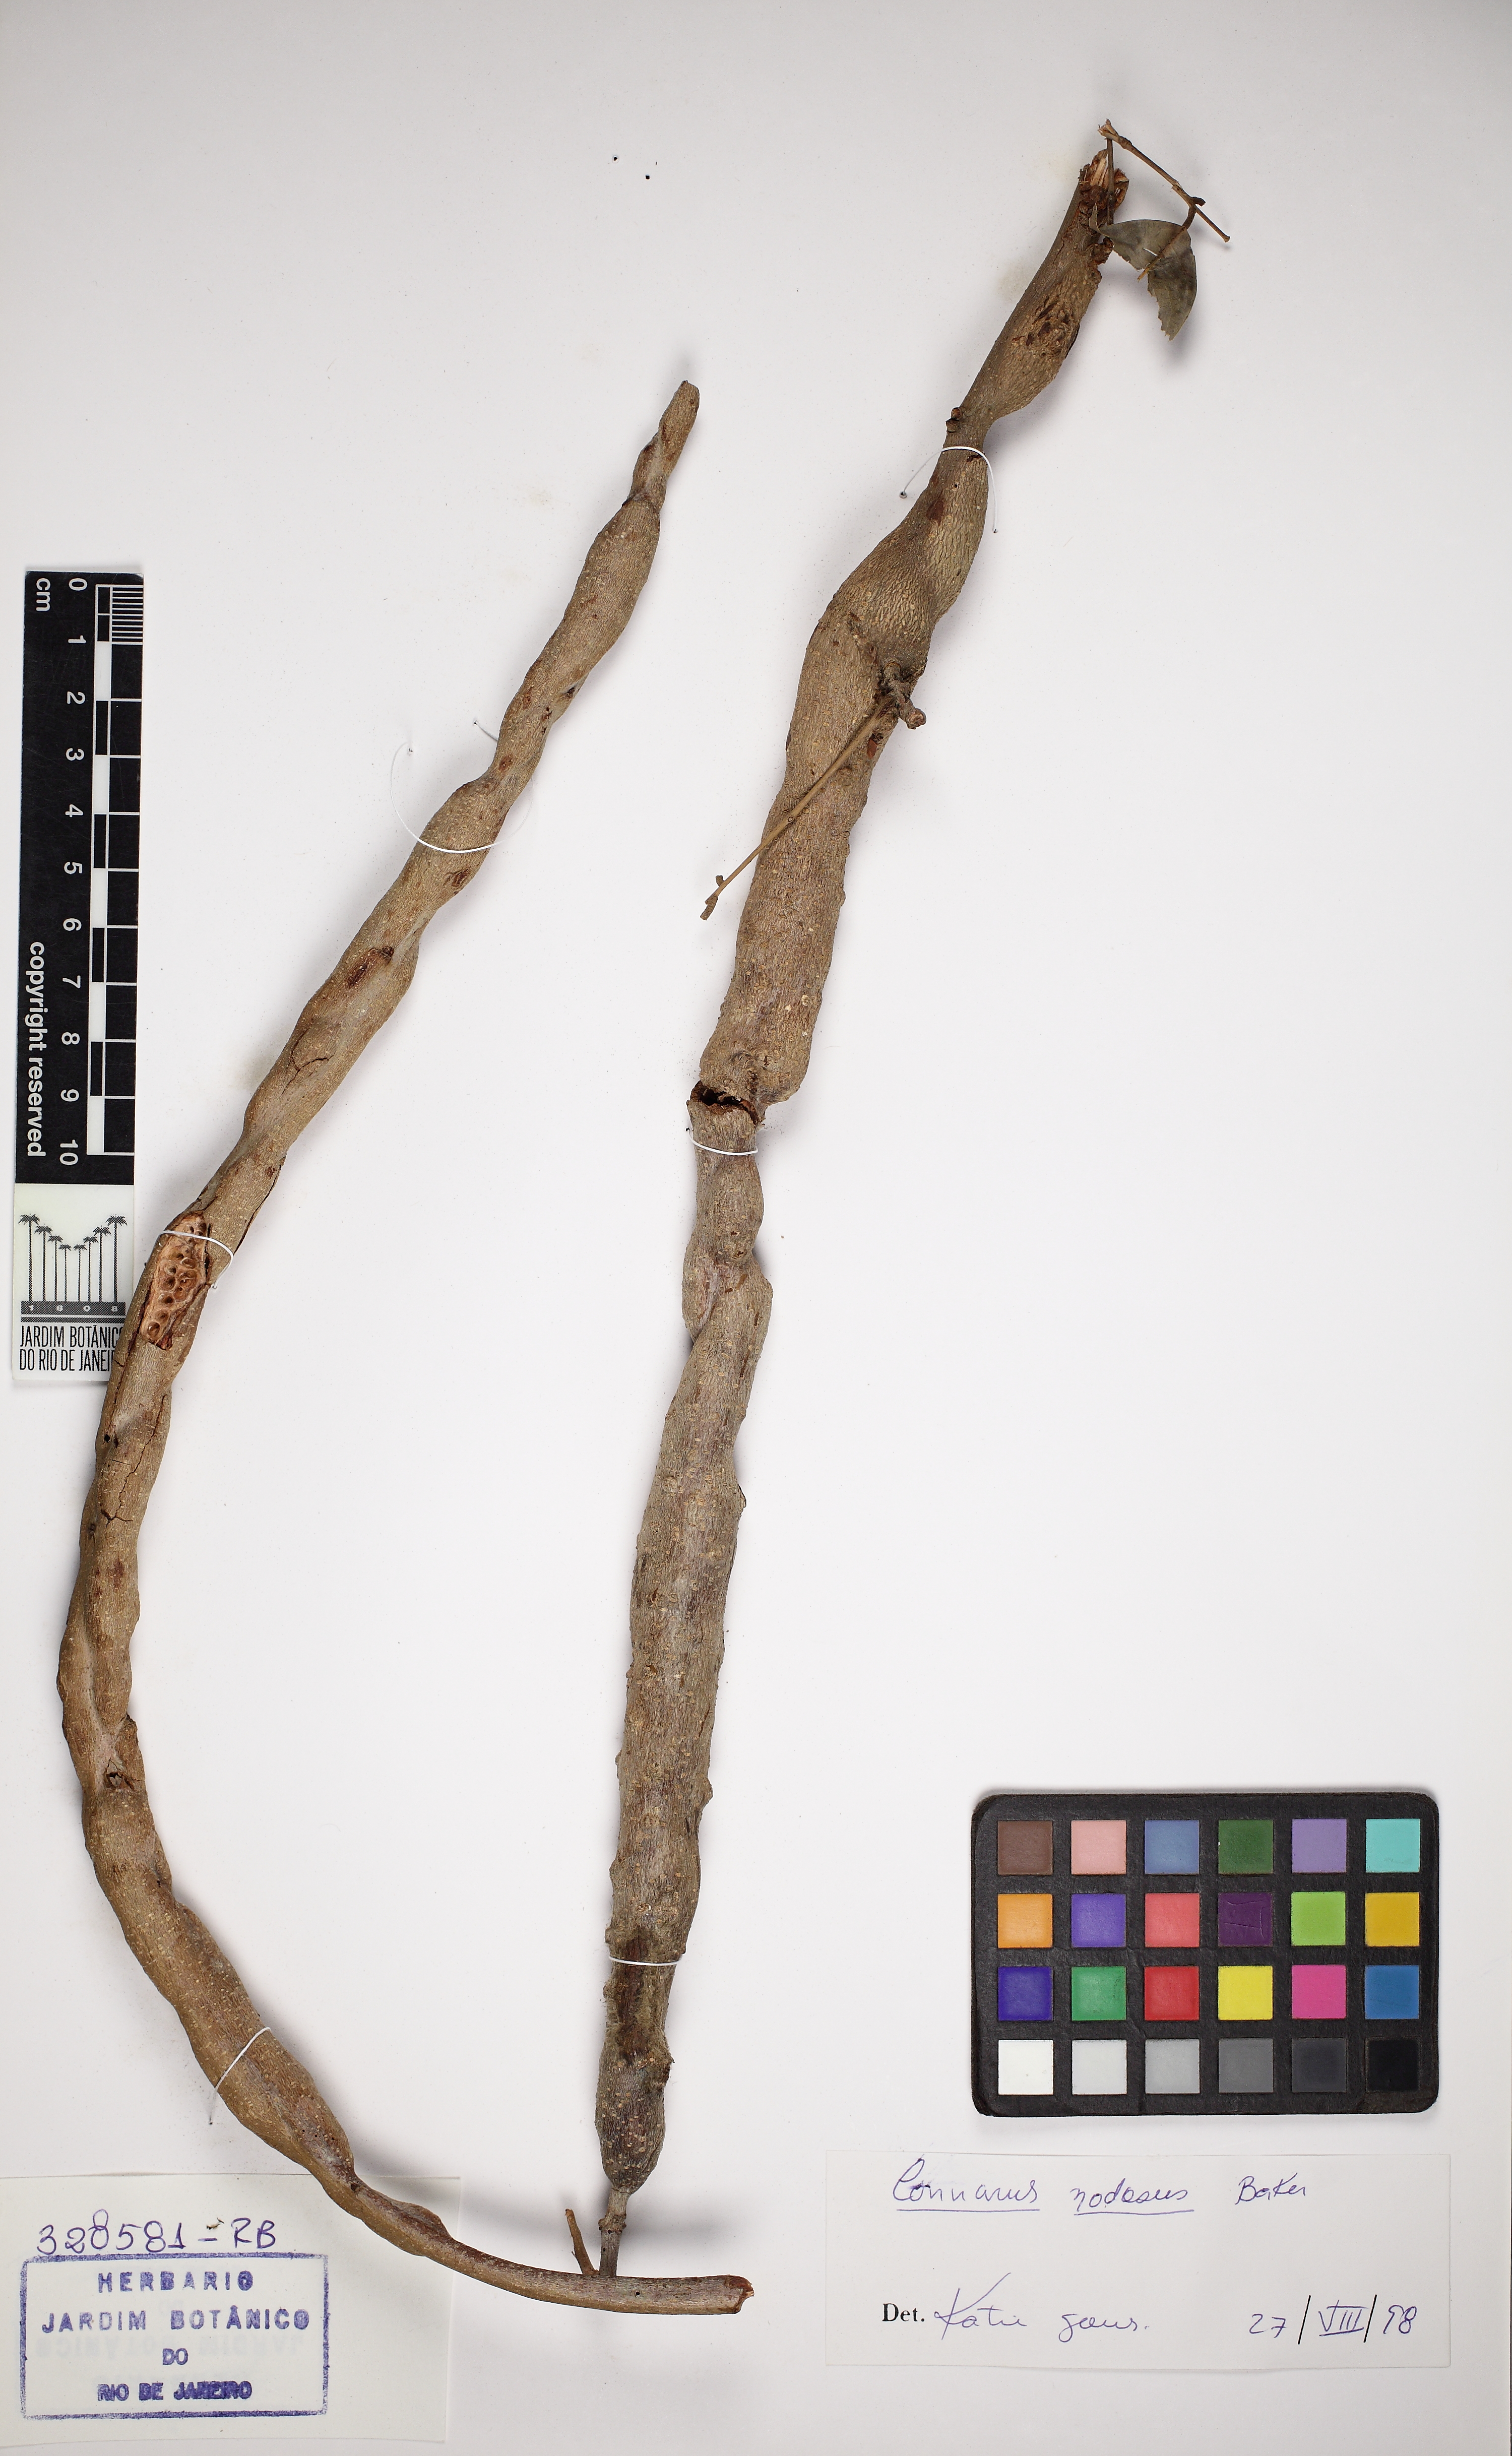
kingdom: Plantae
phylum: Tracheophyta
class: Magnoliopsida
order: Oxalidales
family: Connaraceae
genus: Connarus
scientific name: Connarus nodosus
